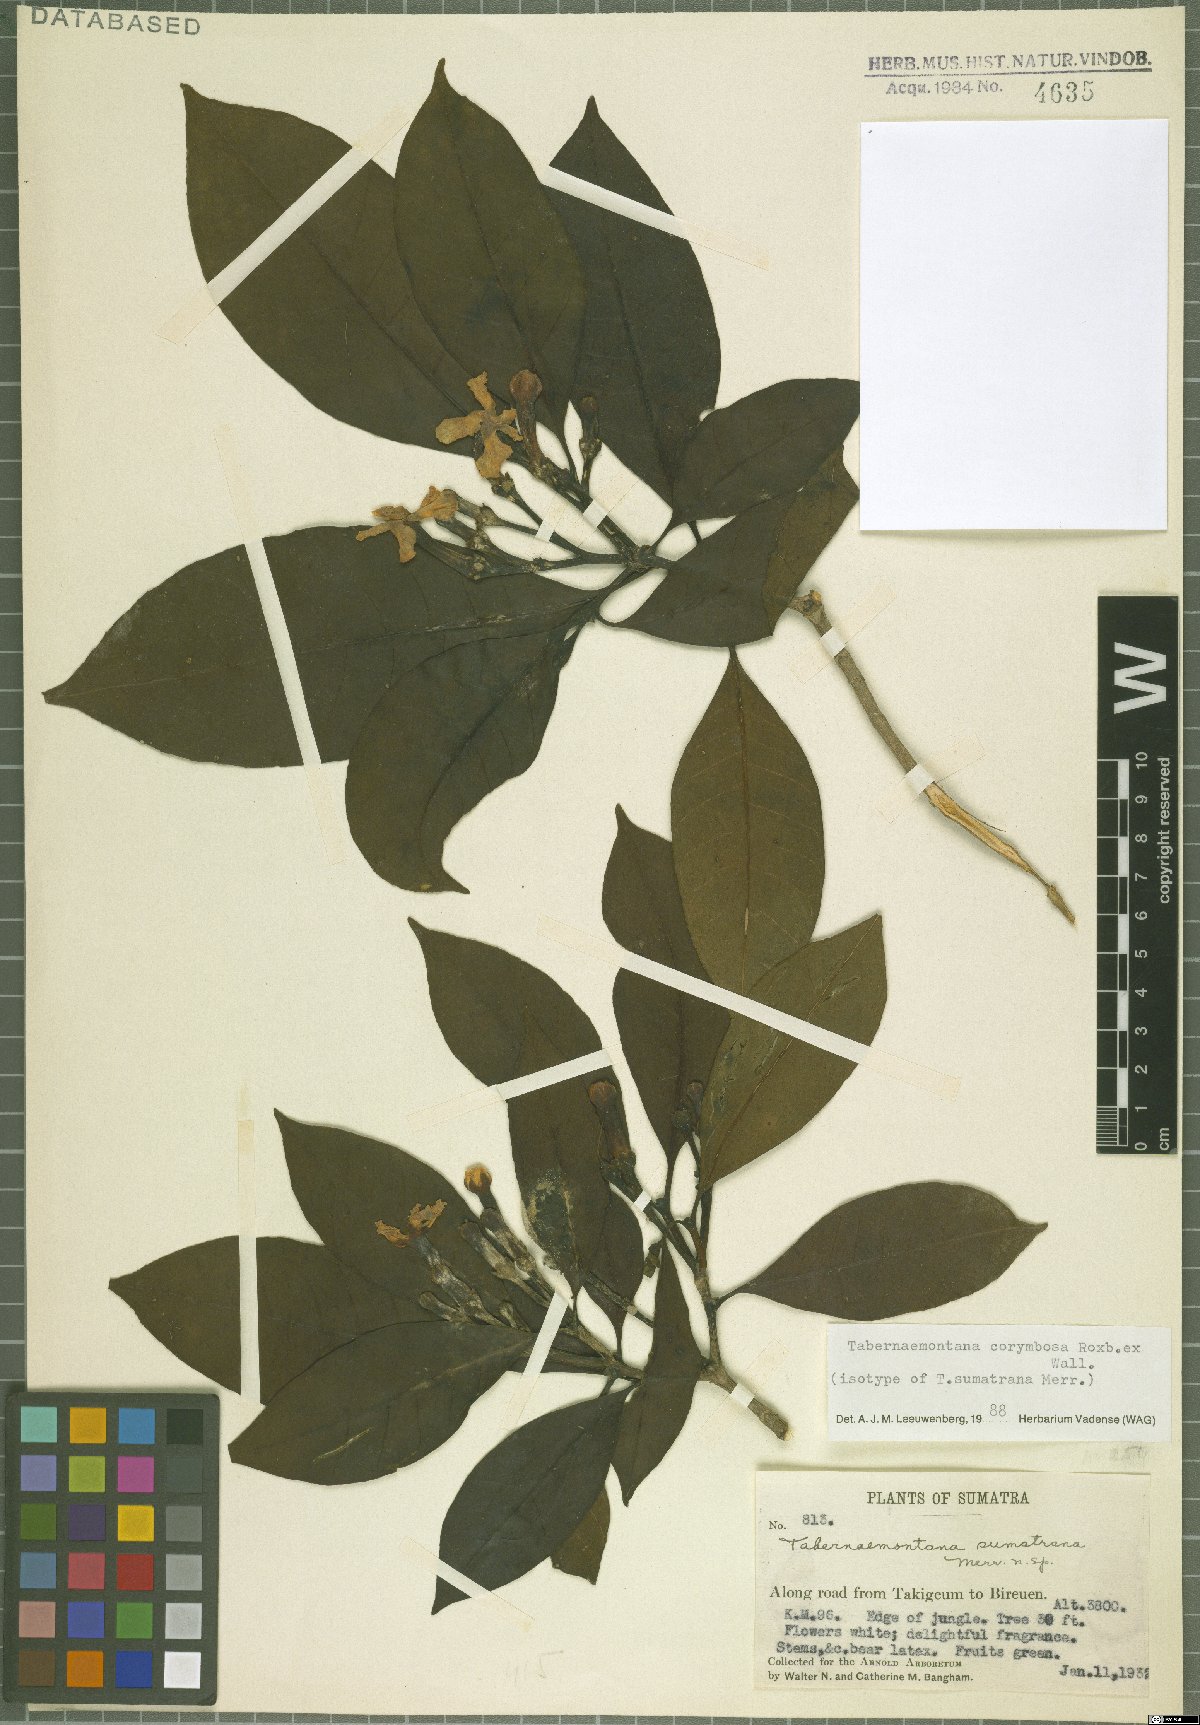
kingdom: Plantae
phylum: Tracheophyta
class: Magnoliopsida
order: Gentianales
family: Apocynaceae
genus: Tabernaemontana
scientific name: Tabernaemontana corymbosa
